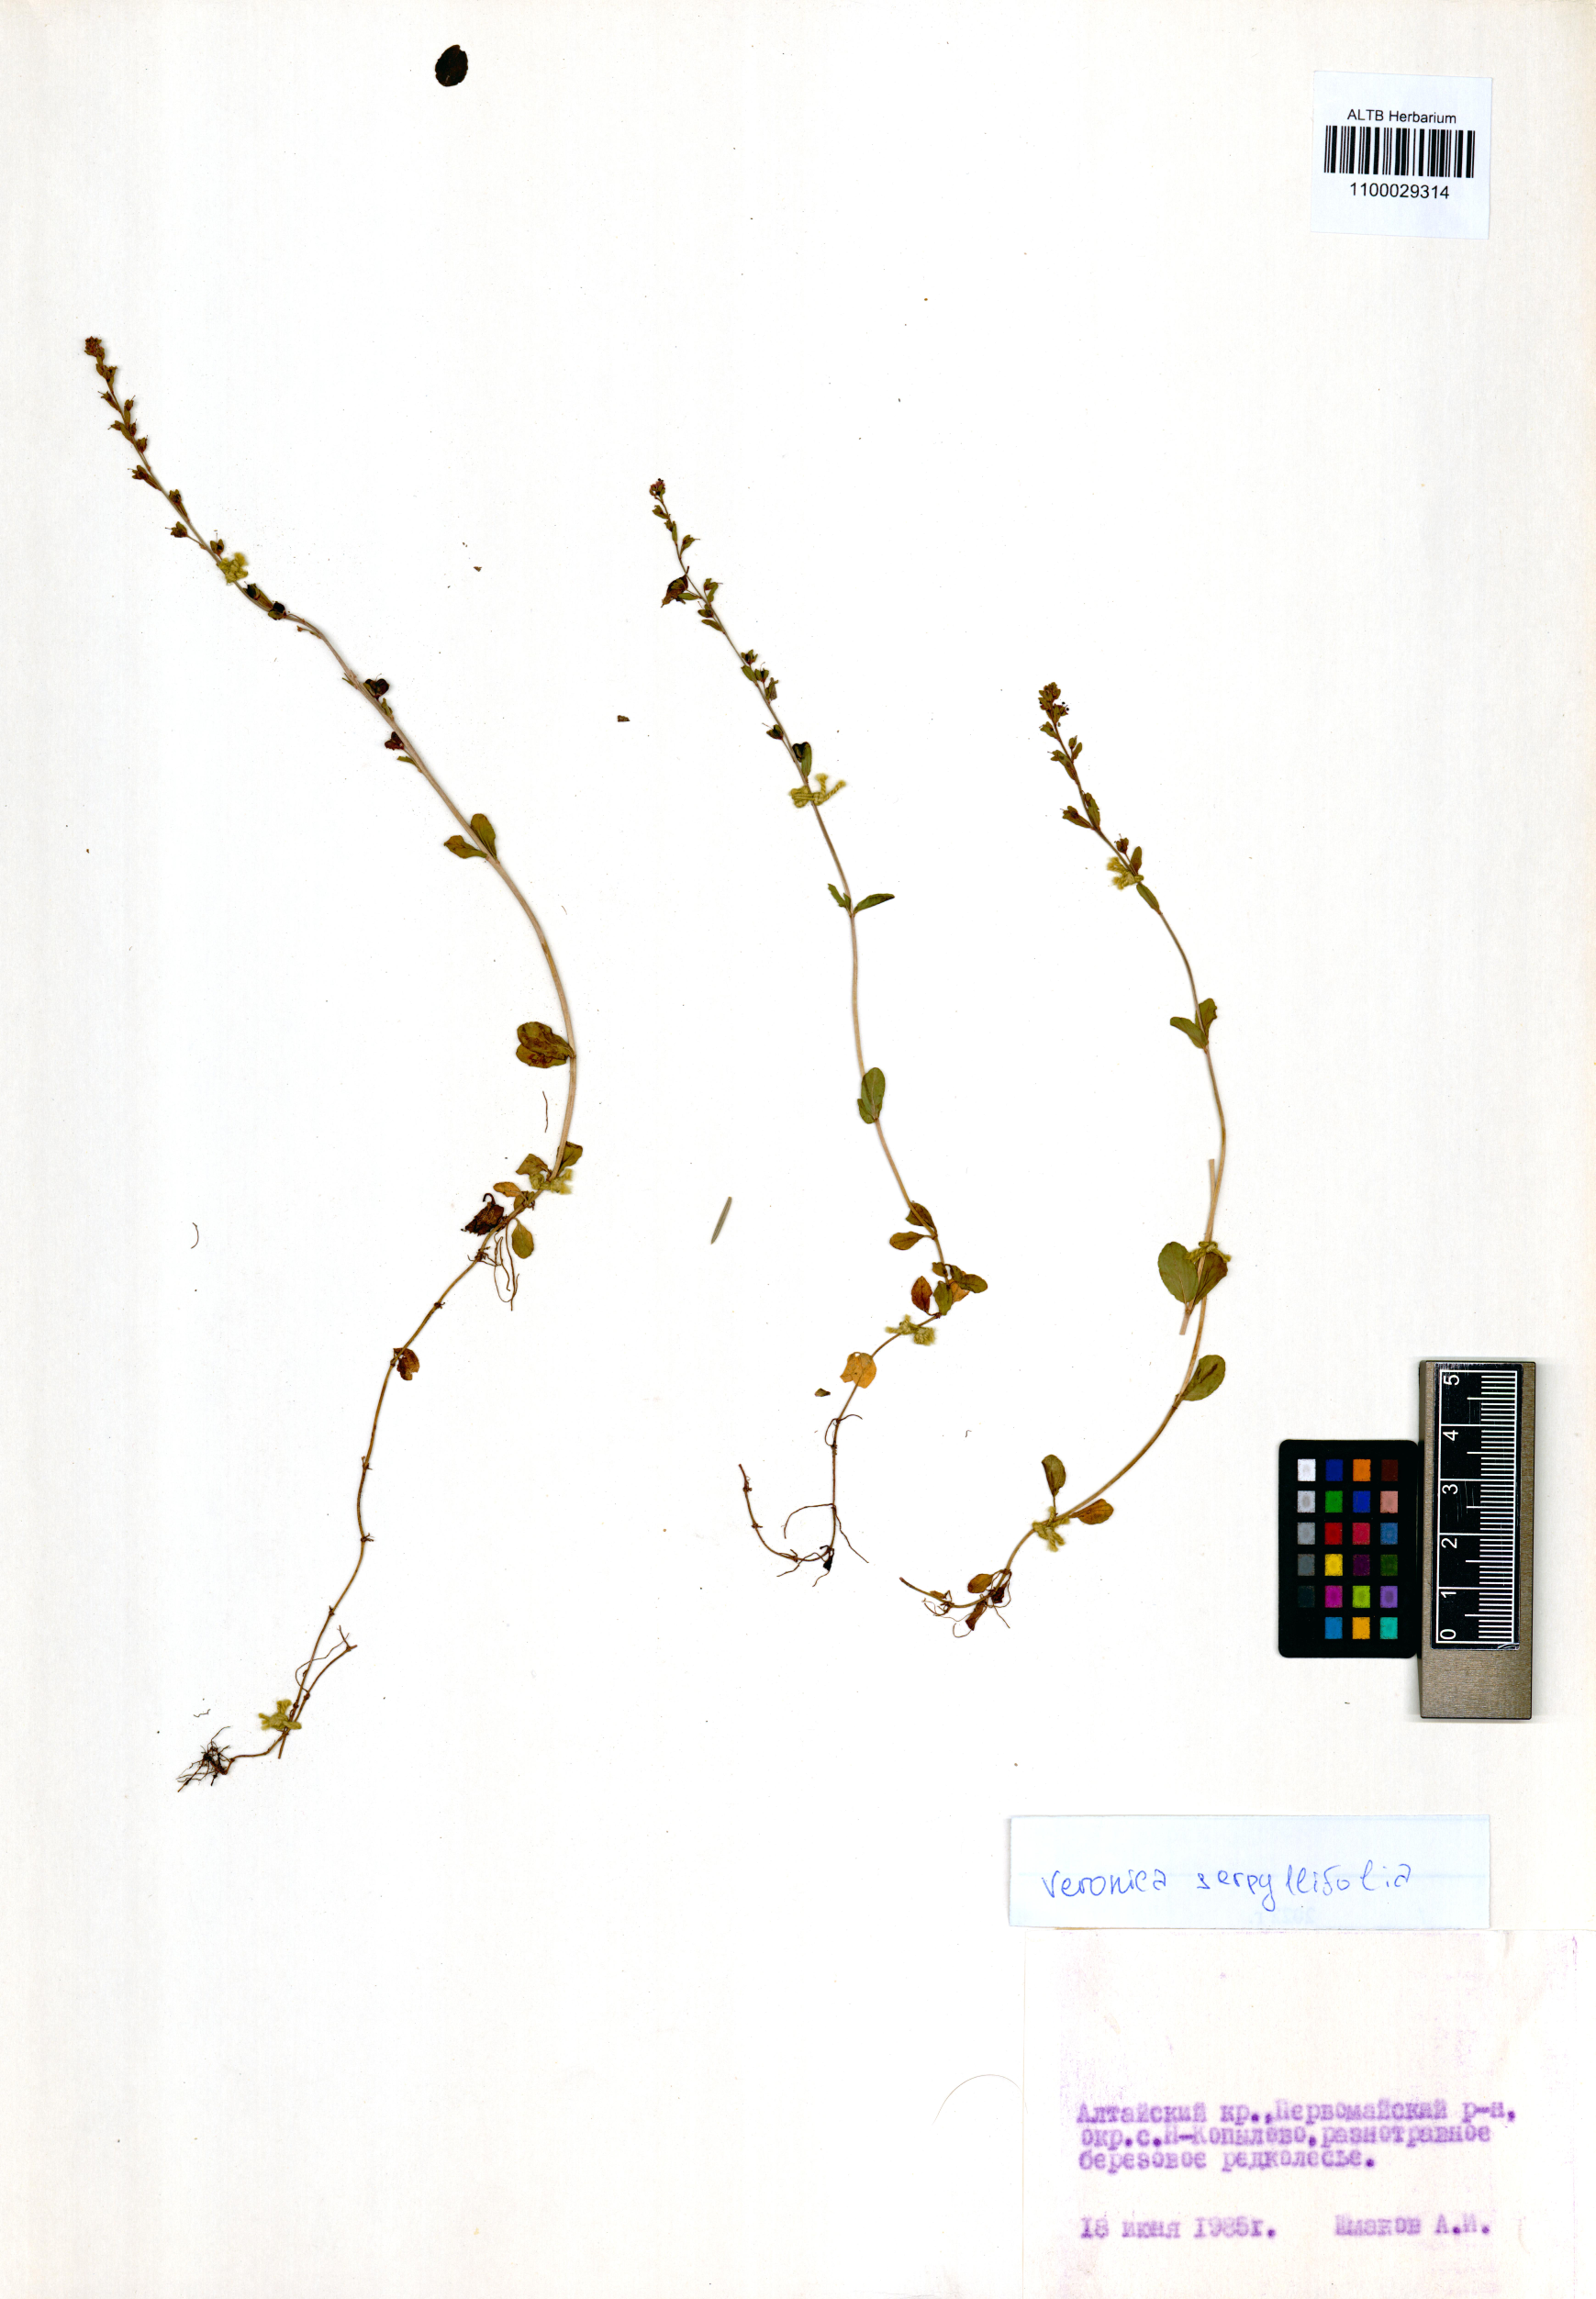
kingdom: Plantae
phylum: Tracheophyta
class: Magnoliopsida
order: Lamiales
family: Plantaginaceae
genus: Veronica
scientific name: Veronica serpyllifolia
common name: Thyme-leaved speedwell
